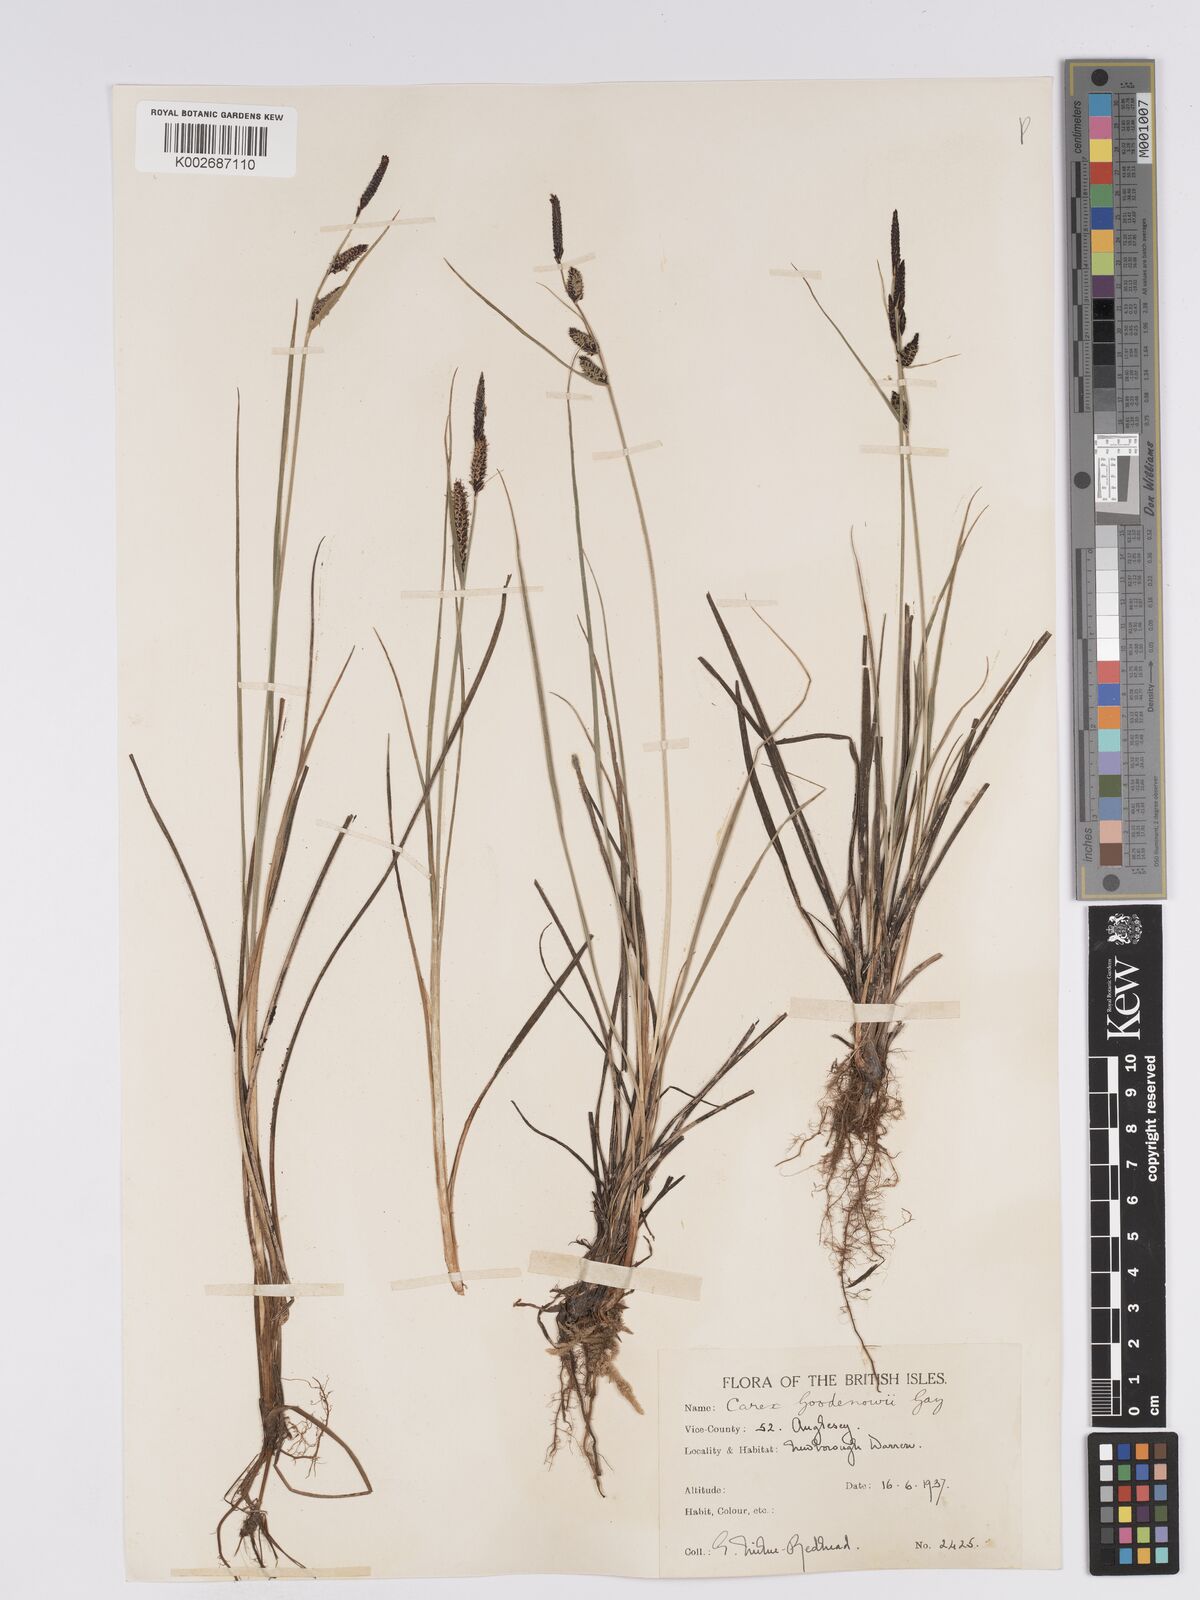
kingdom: Plantae
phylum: Tracheophyta
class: Liliopsida
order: Poales
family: Cyperaceae
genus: Carex
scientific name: Carex nigra
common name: Common sedge
